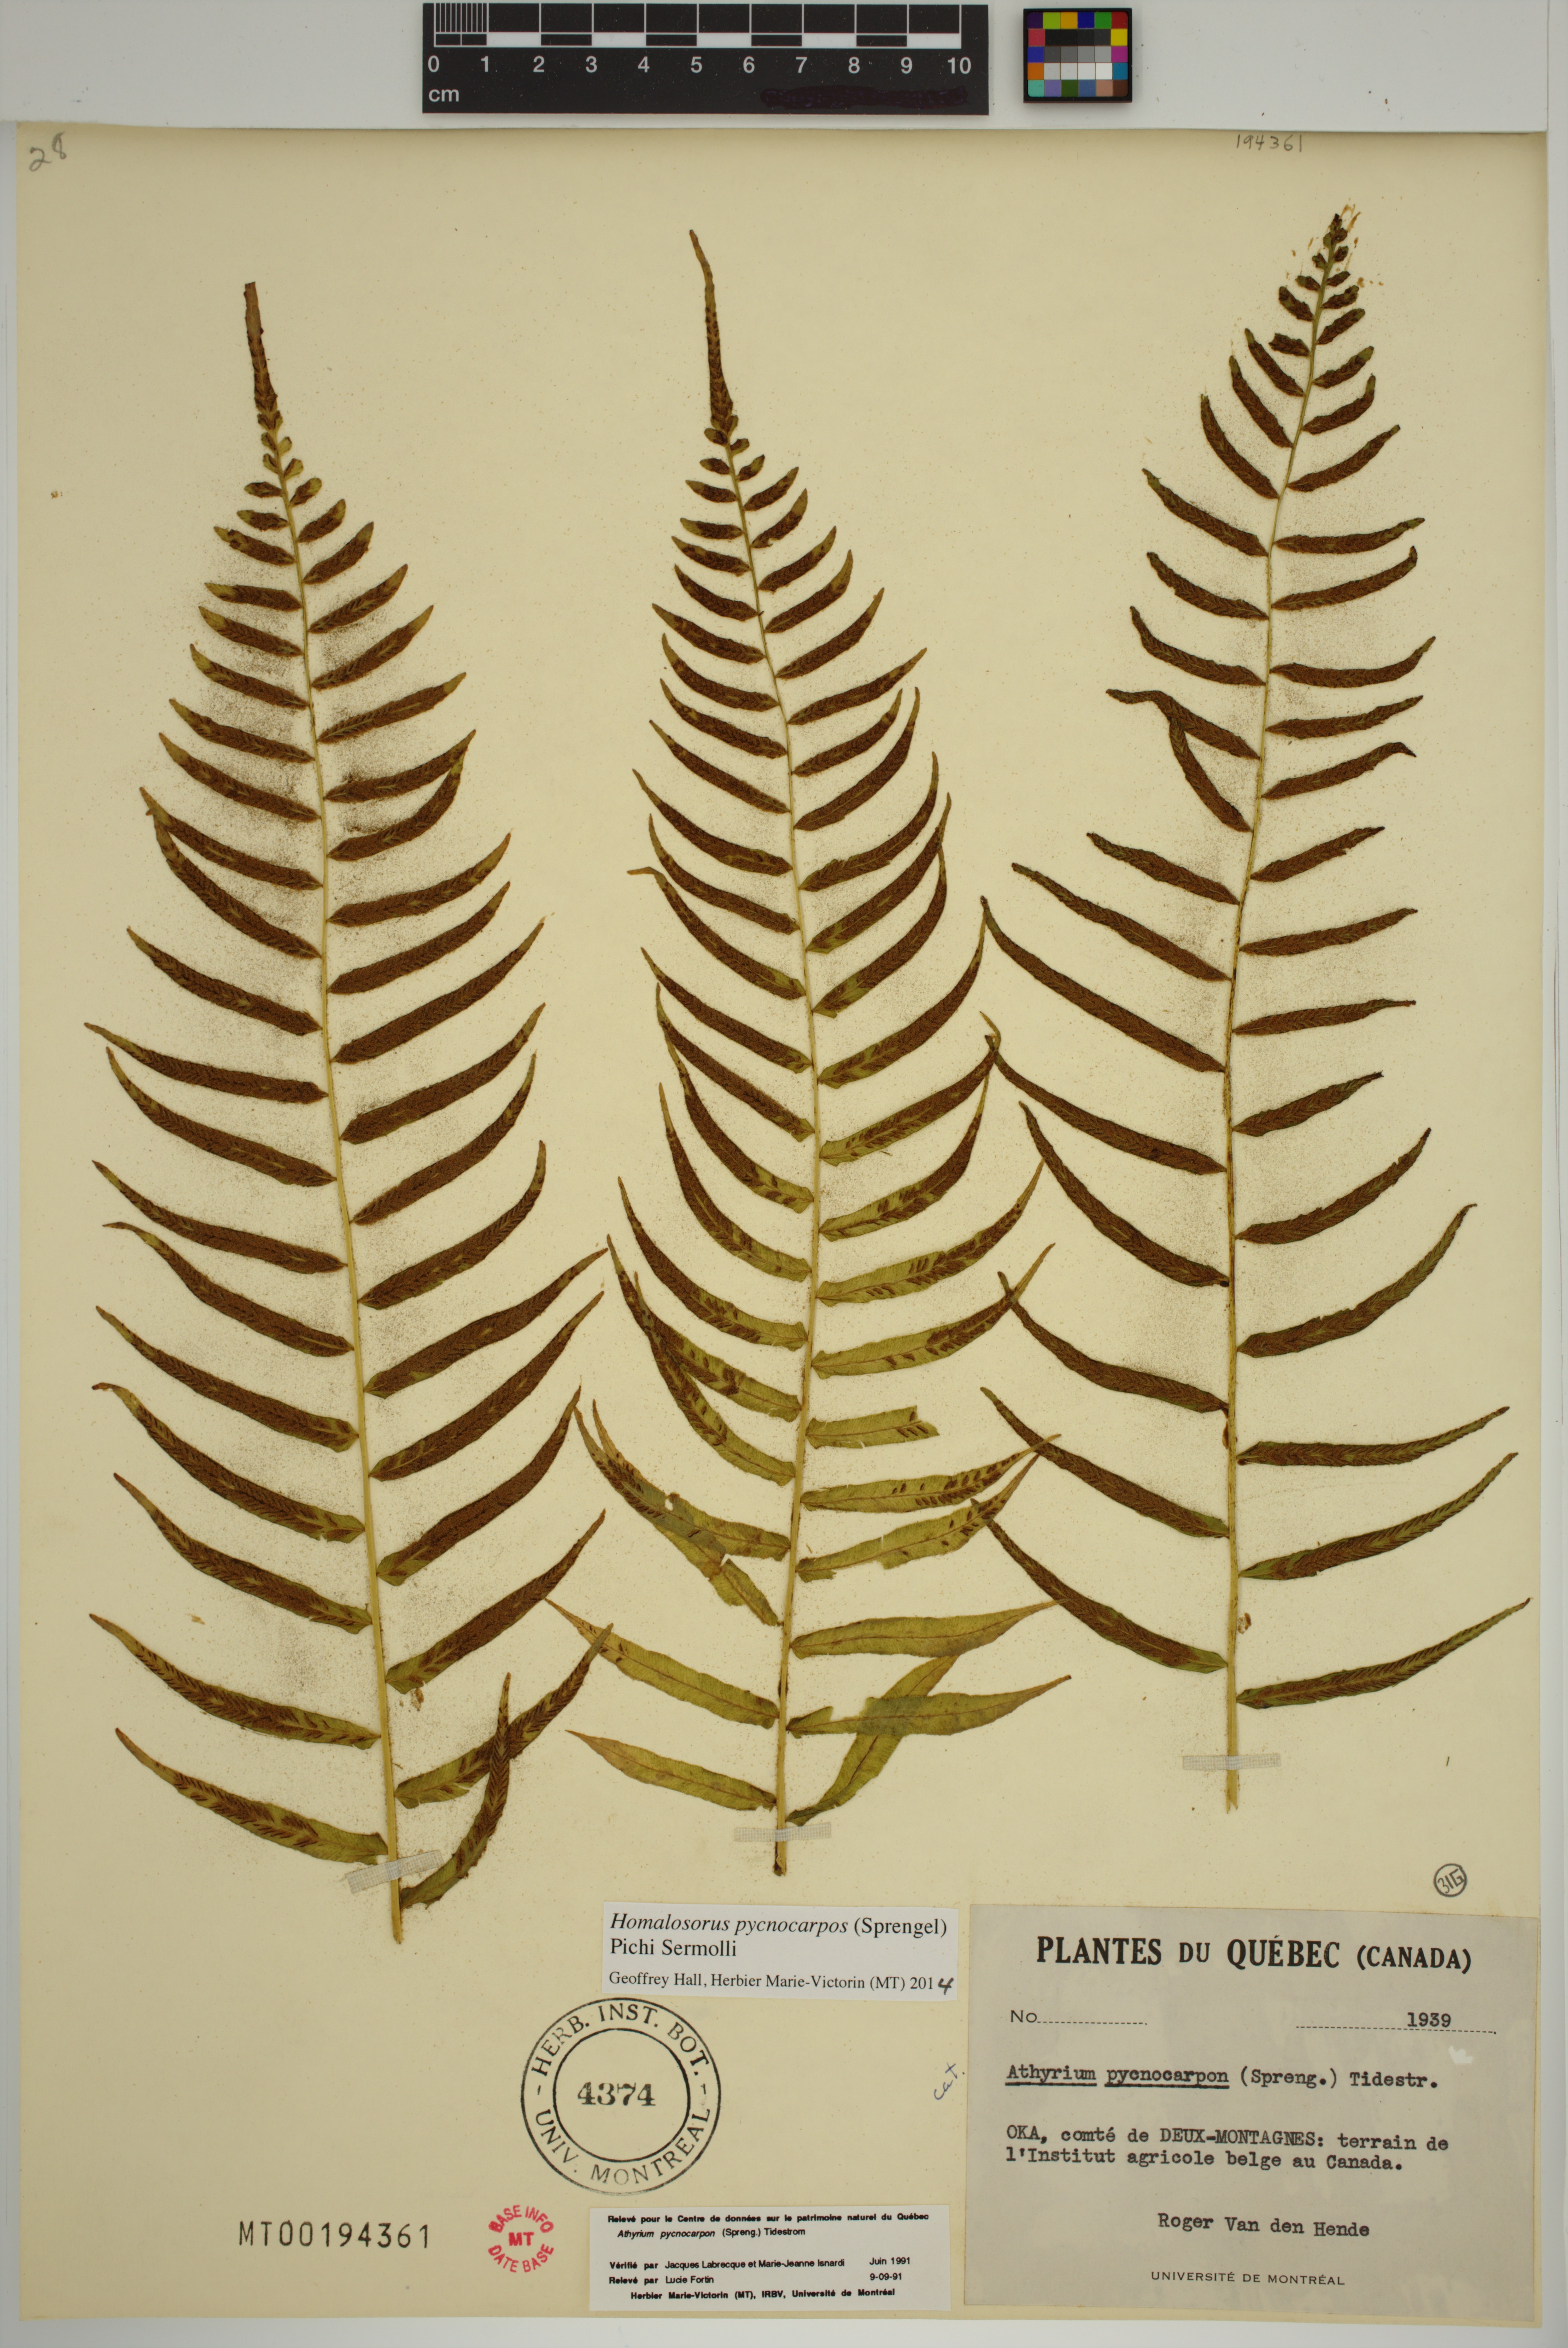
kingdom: Plantae
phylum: Tracheophyta
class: Polypodiopsida
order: Polypodiales
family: Diplaziopsidaceae
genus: Homalosorus
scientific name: Homalosorus pycnocarpos
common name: Glade fern
